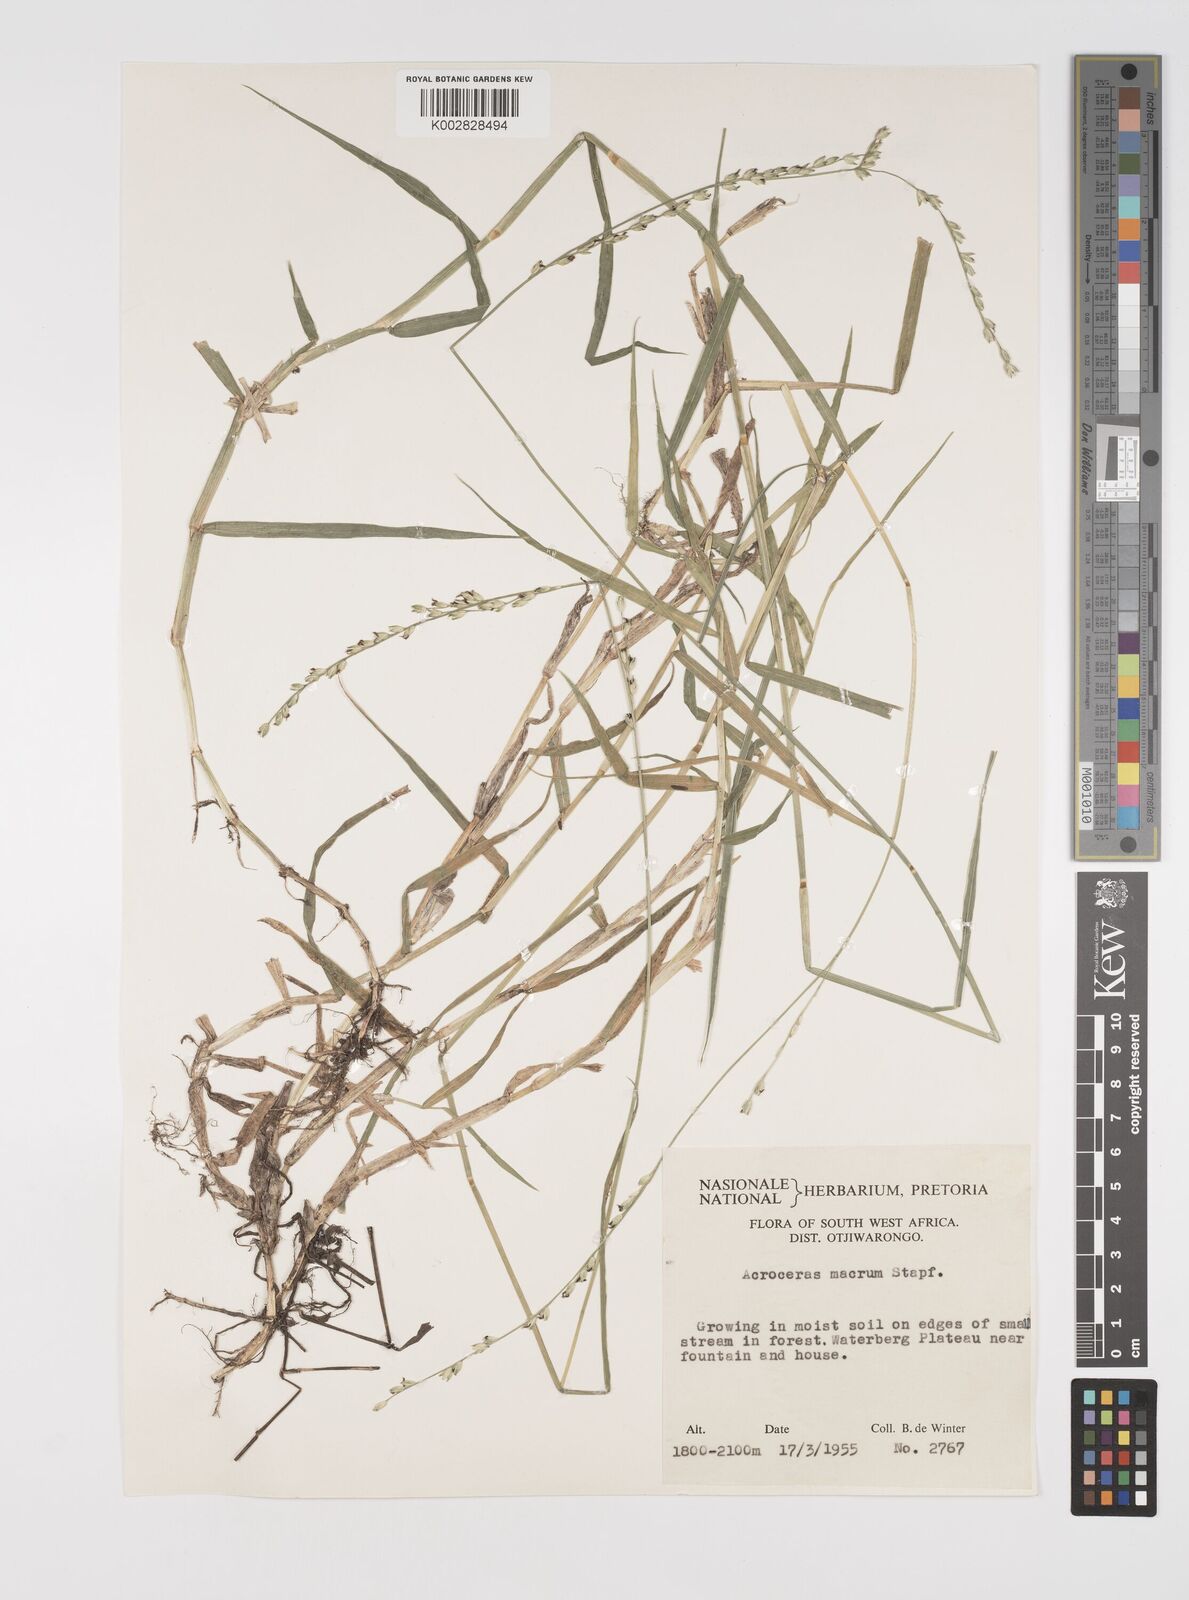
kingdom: Plantae
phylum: Tracheophyta
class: Liliopsida
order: Poales
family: Poaceae
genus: Acroceras
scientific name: Acroceras macrum
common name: Nyl grass
